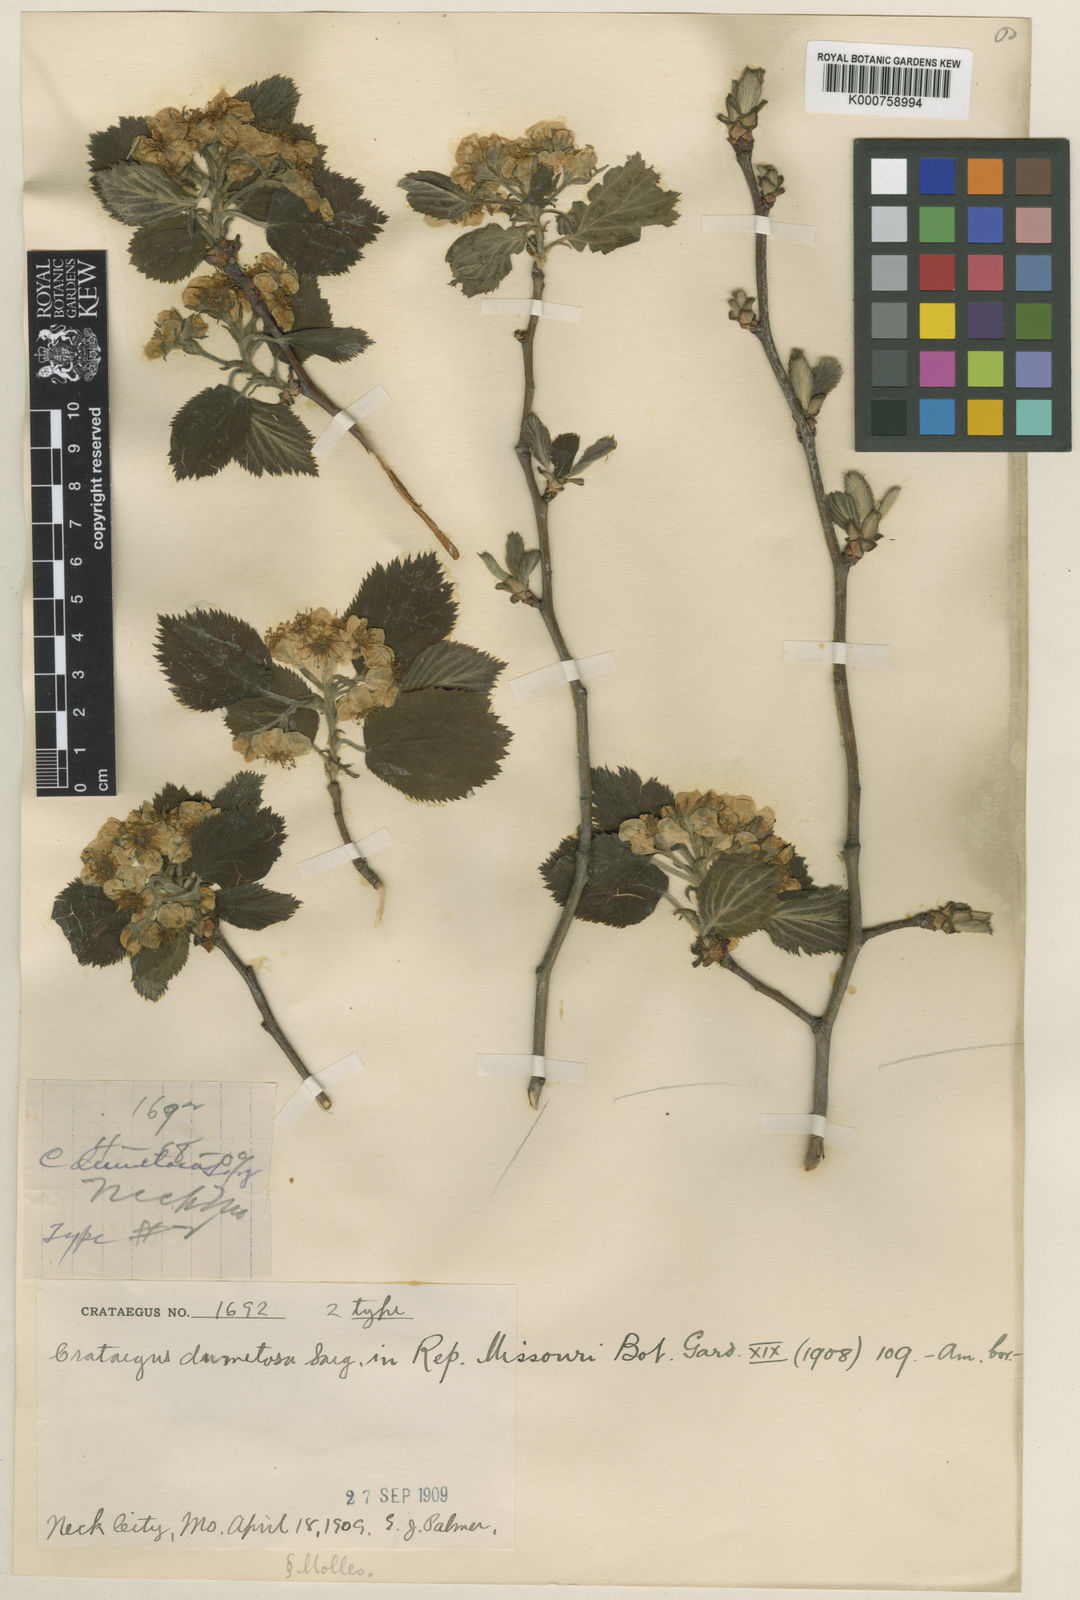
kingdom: Plantae
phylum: Tracheophyta
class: Magnoliopsida
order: Rosales
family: Rosaceae
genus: Crataegus
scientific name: Crataegus mollis
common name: Downy hawthorn
